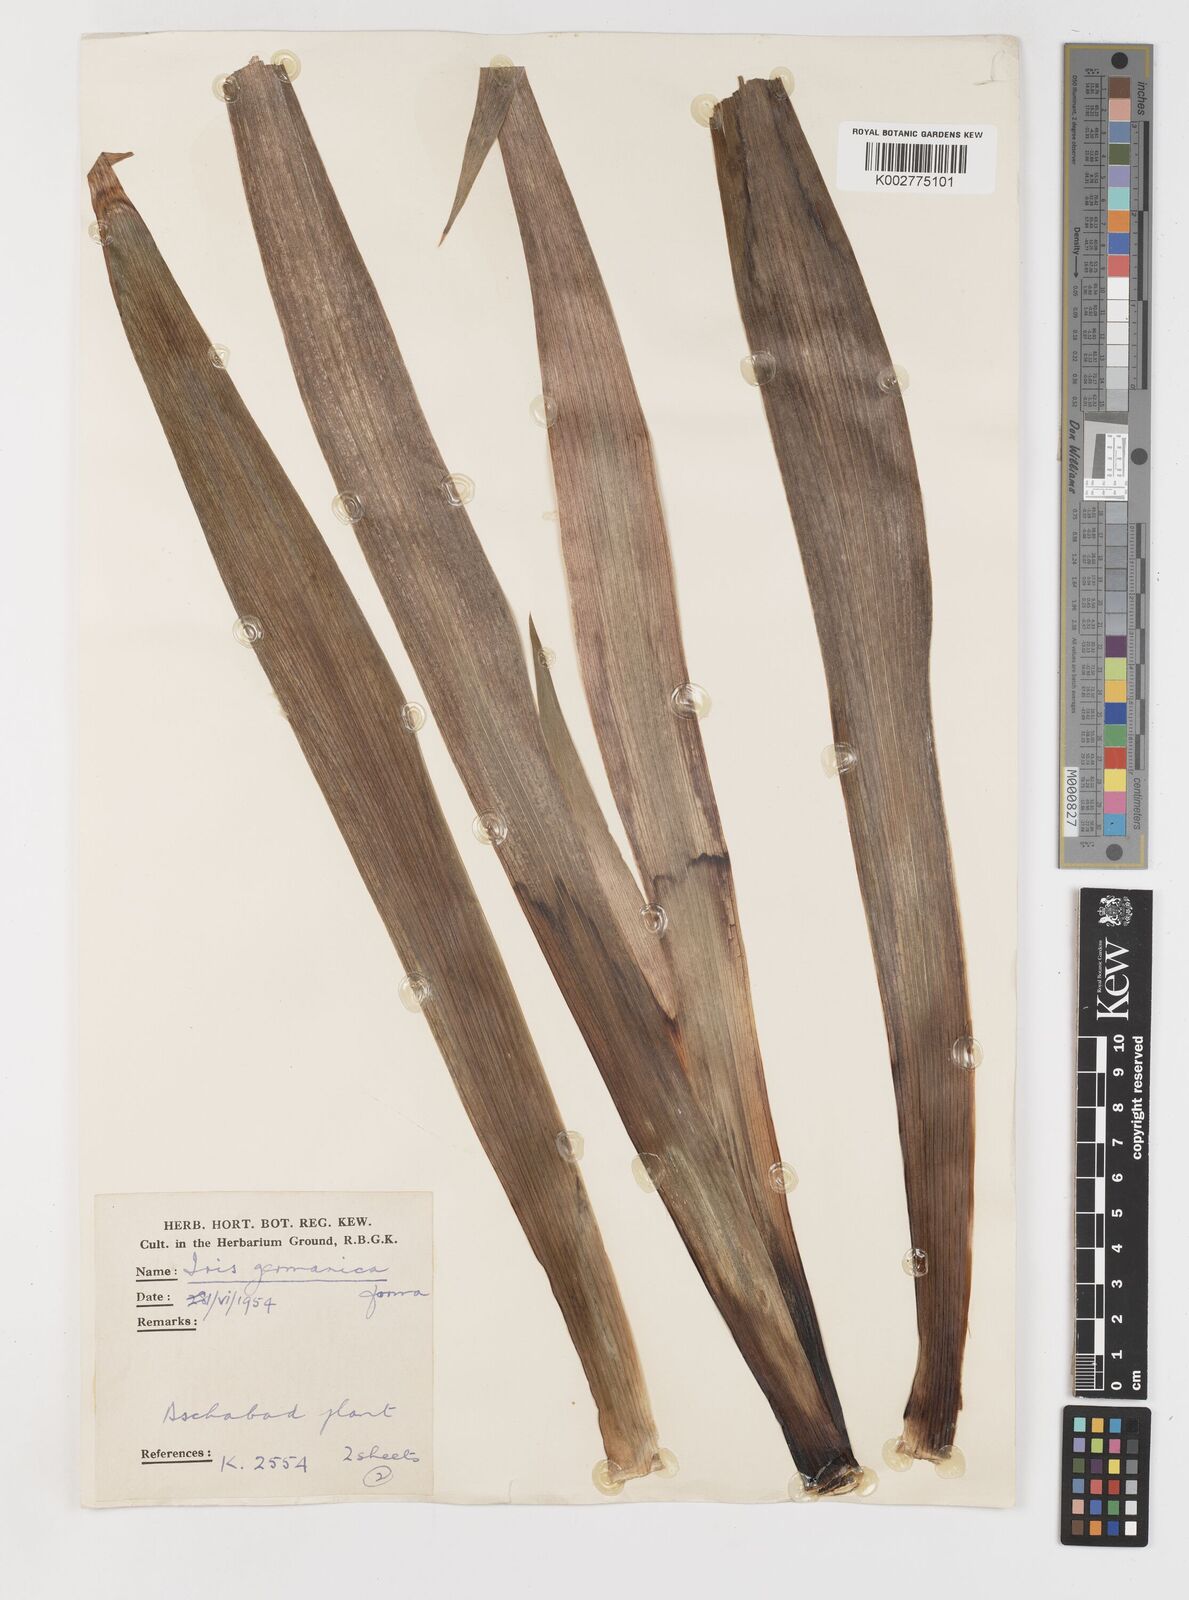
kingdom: Plantae
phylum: Tracheophyta
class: Liliopsida
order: Asparagales
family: Iridaceae
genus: Iris
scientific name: Iris germanica
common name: German iris
